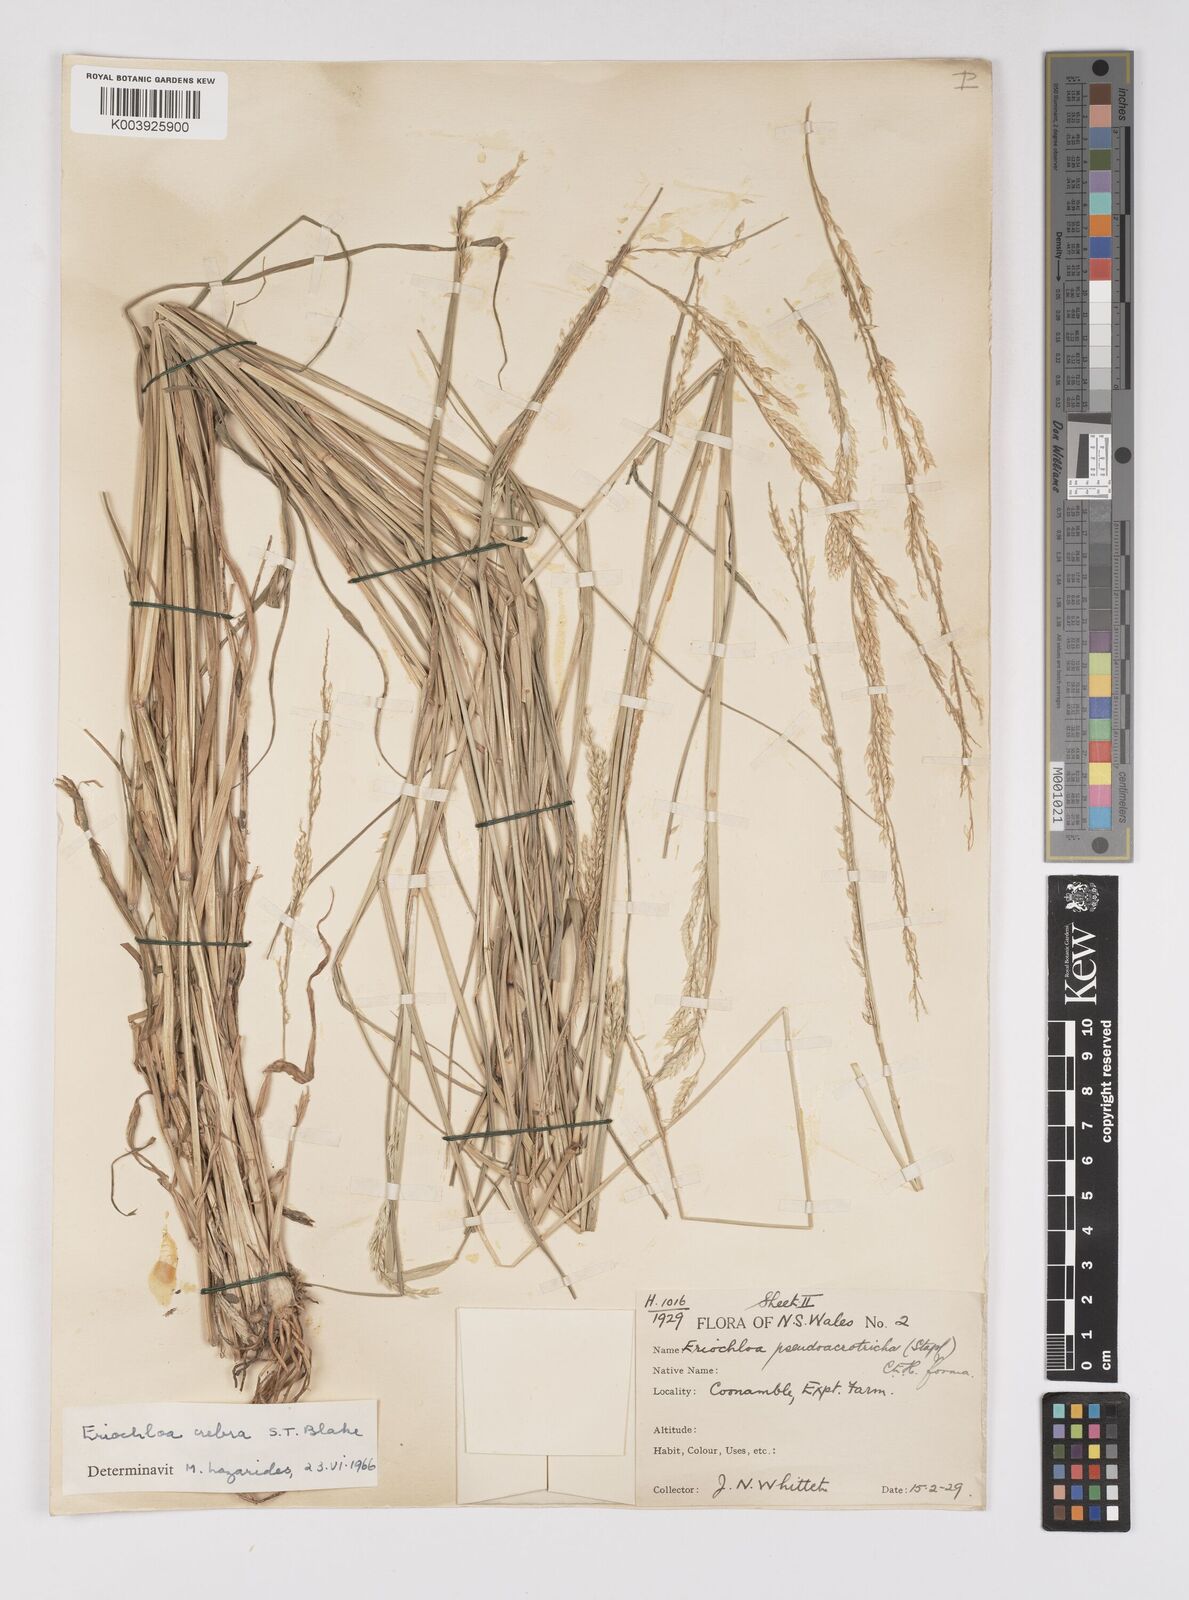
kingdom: Plantae
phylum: Tracheophyta
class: Liliopsida
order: Poales
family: Poaceae
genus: Eriochloa
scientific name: Eriochloa crebra
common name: Cup grass
